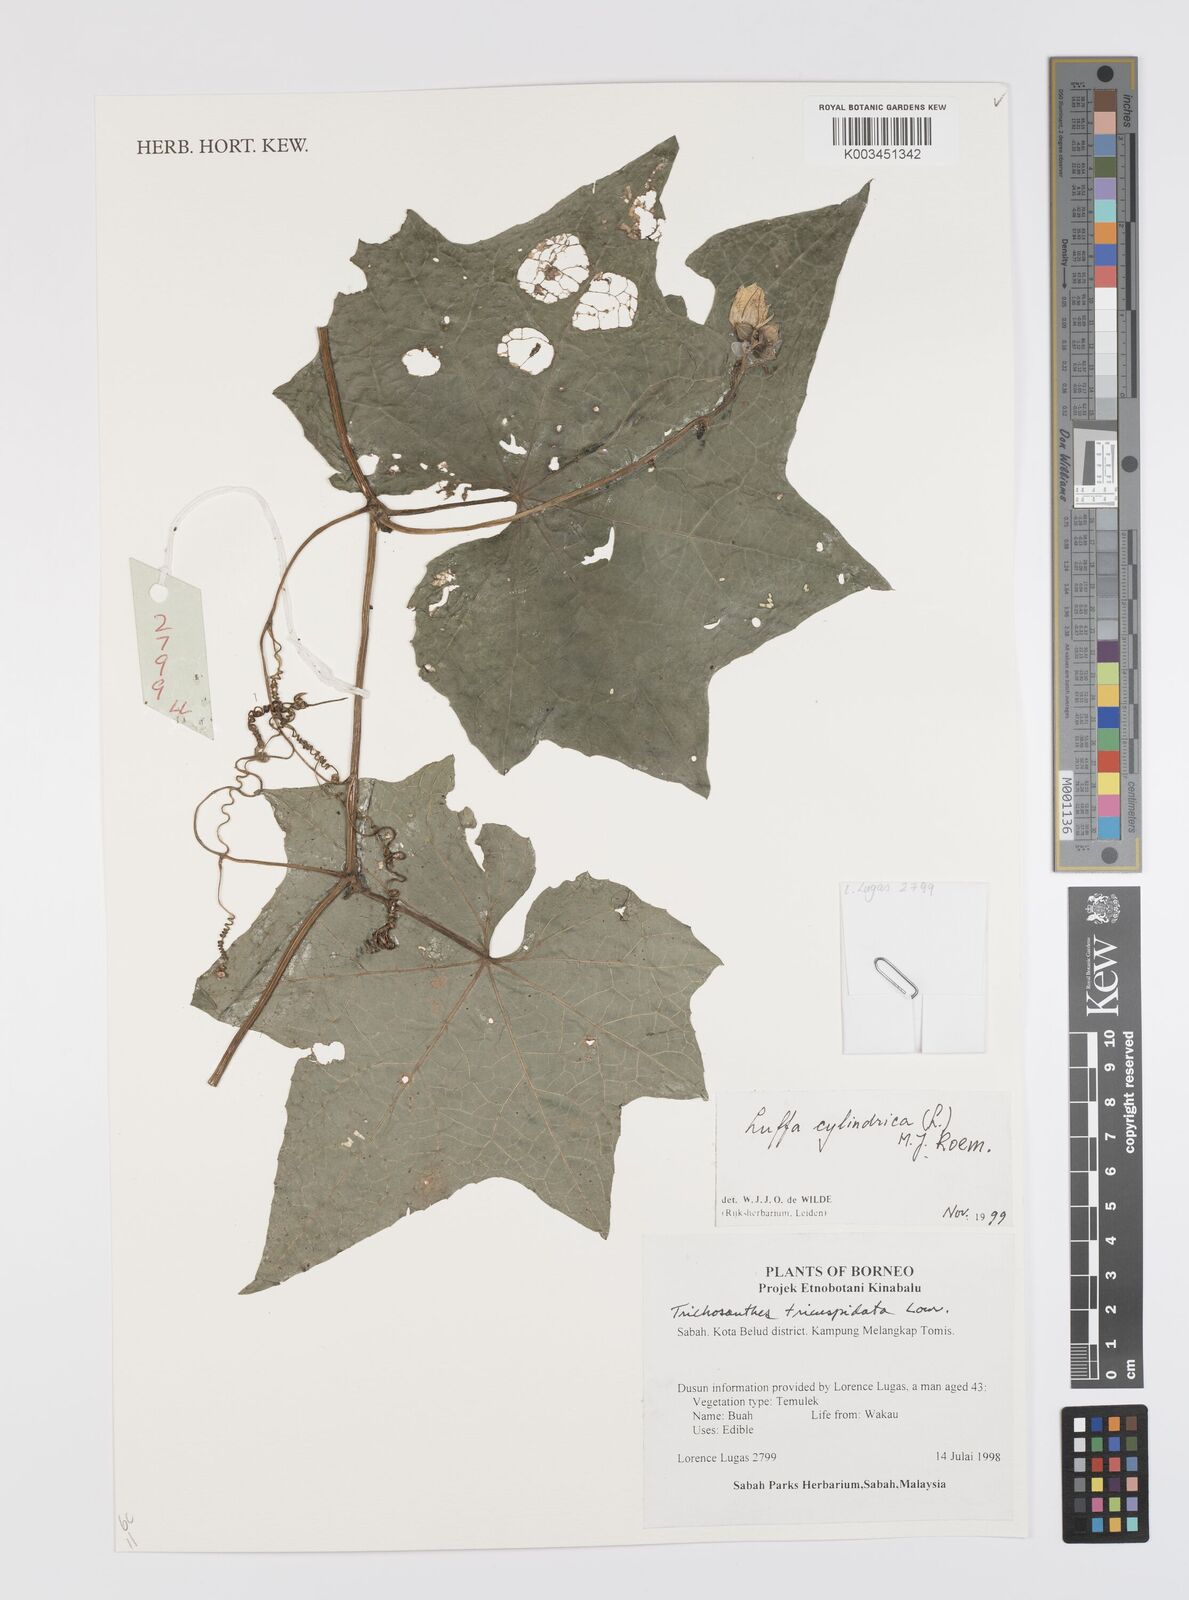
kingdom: Plantae
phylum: Tracheophyta
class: Magnoliopsida
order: Cucurbitales
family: Cucurbitaceae
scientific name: Cucurbitaceae
